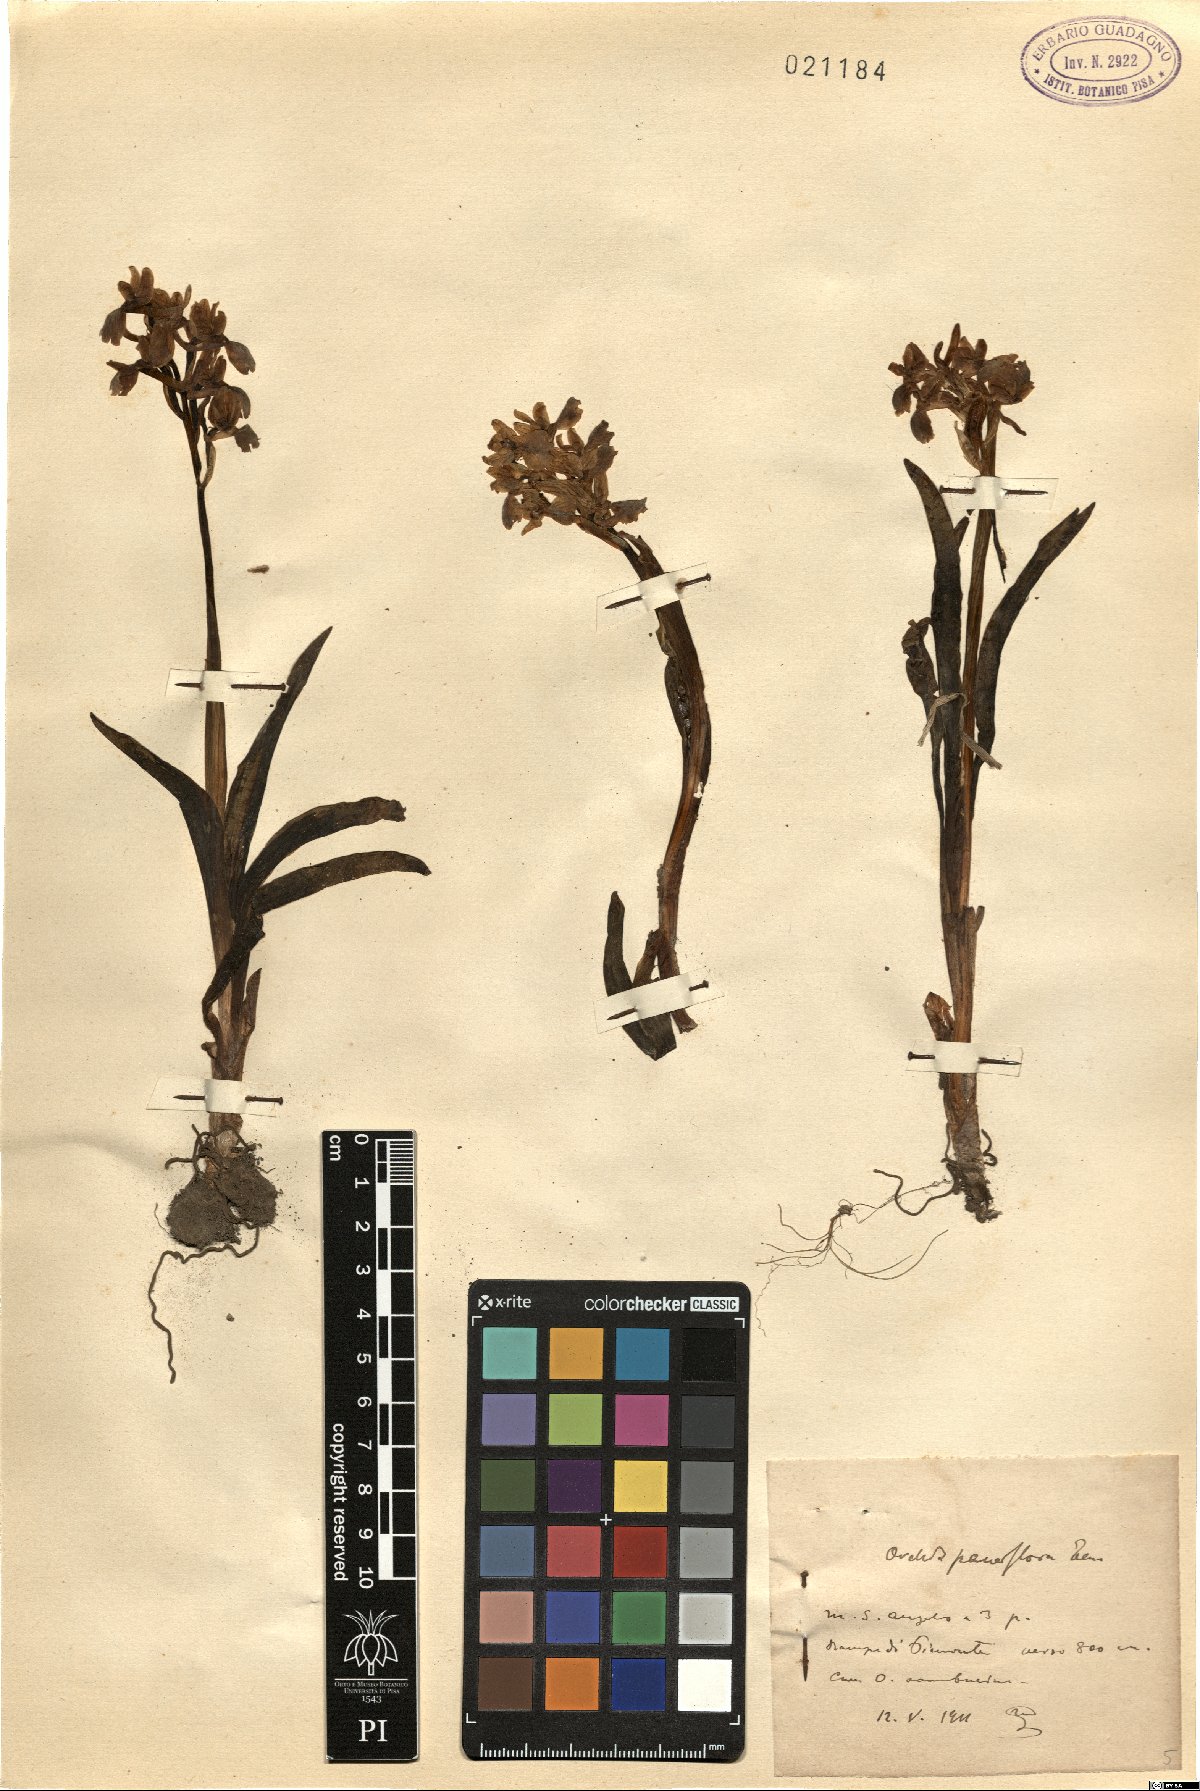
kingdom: Plantae
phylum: Tracheophyta
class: Liliopsida
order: Asparagales
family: Orchidaceae
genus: Orchis
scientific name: Orchis pauciflora
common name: Few-flowered orchid
